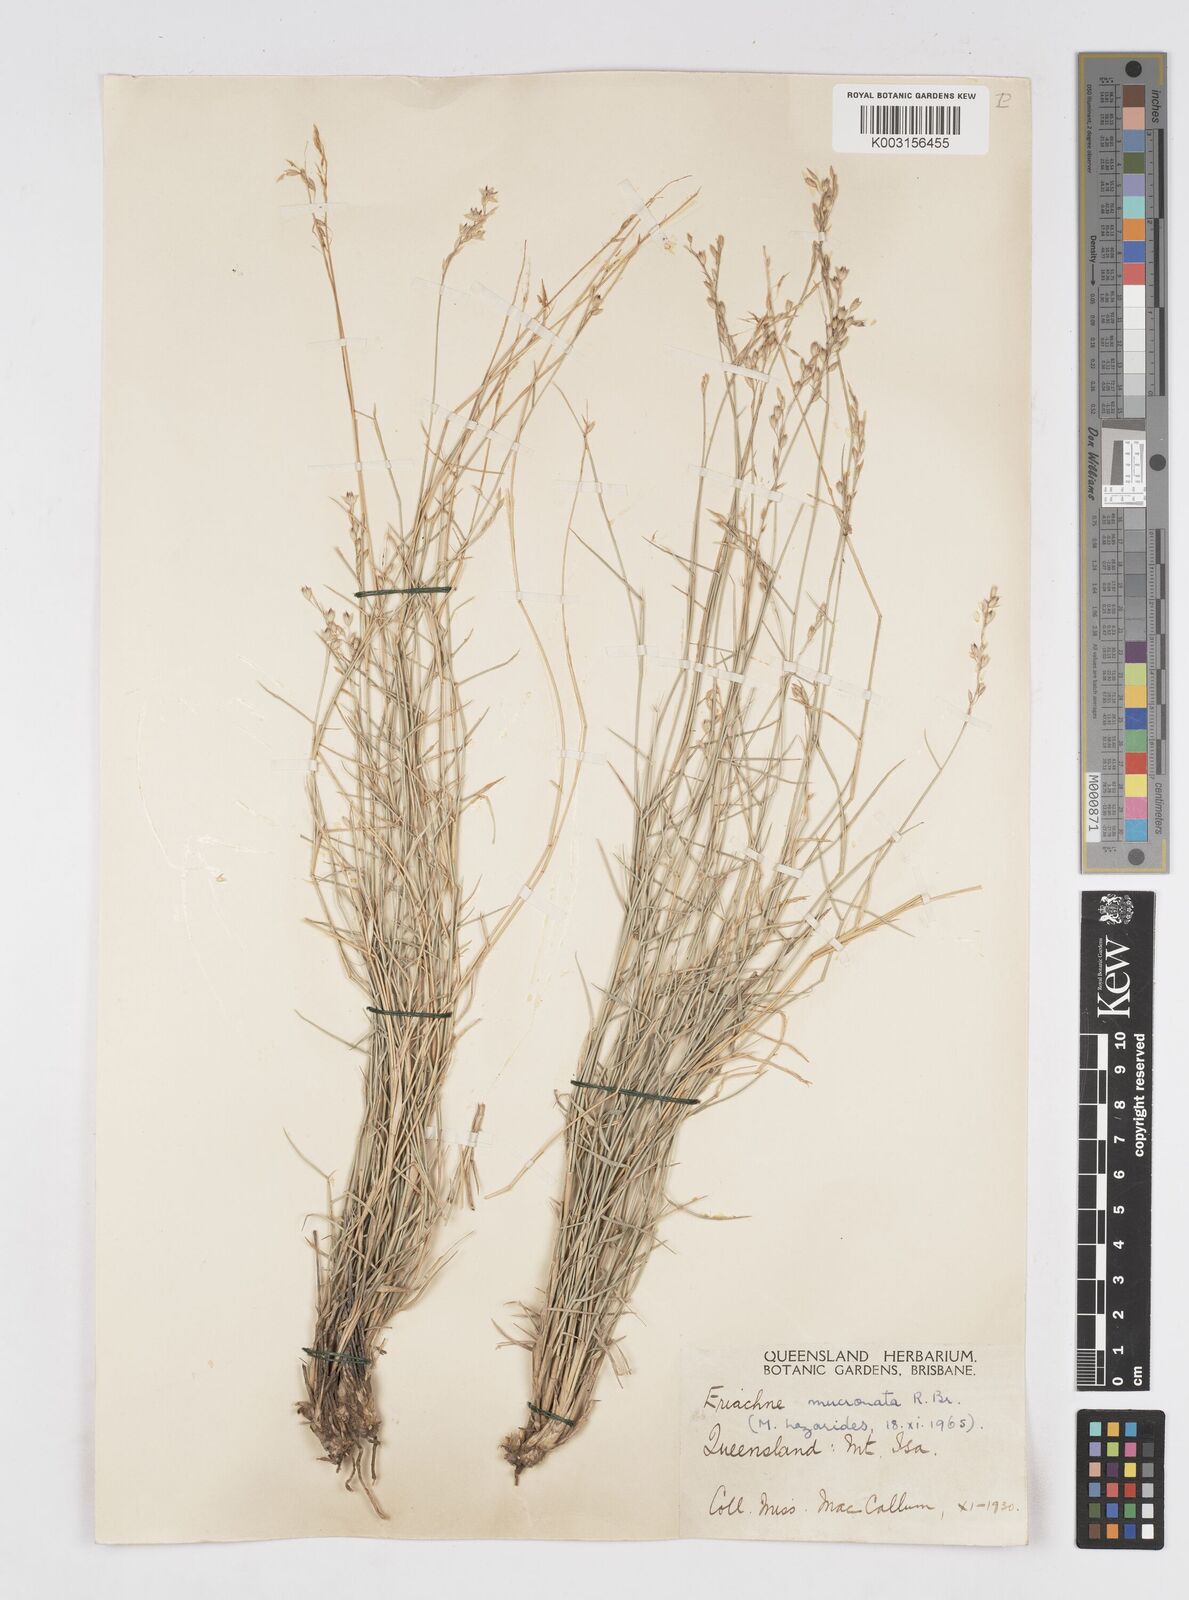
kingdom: Plantae
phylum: Tracheophyta
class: Liliopsida
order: Poales
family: Poaceae
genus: Eriachne
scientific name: Eriachne mucronata
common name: Mountain wanderrie grass
